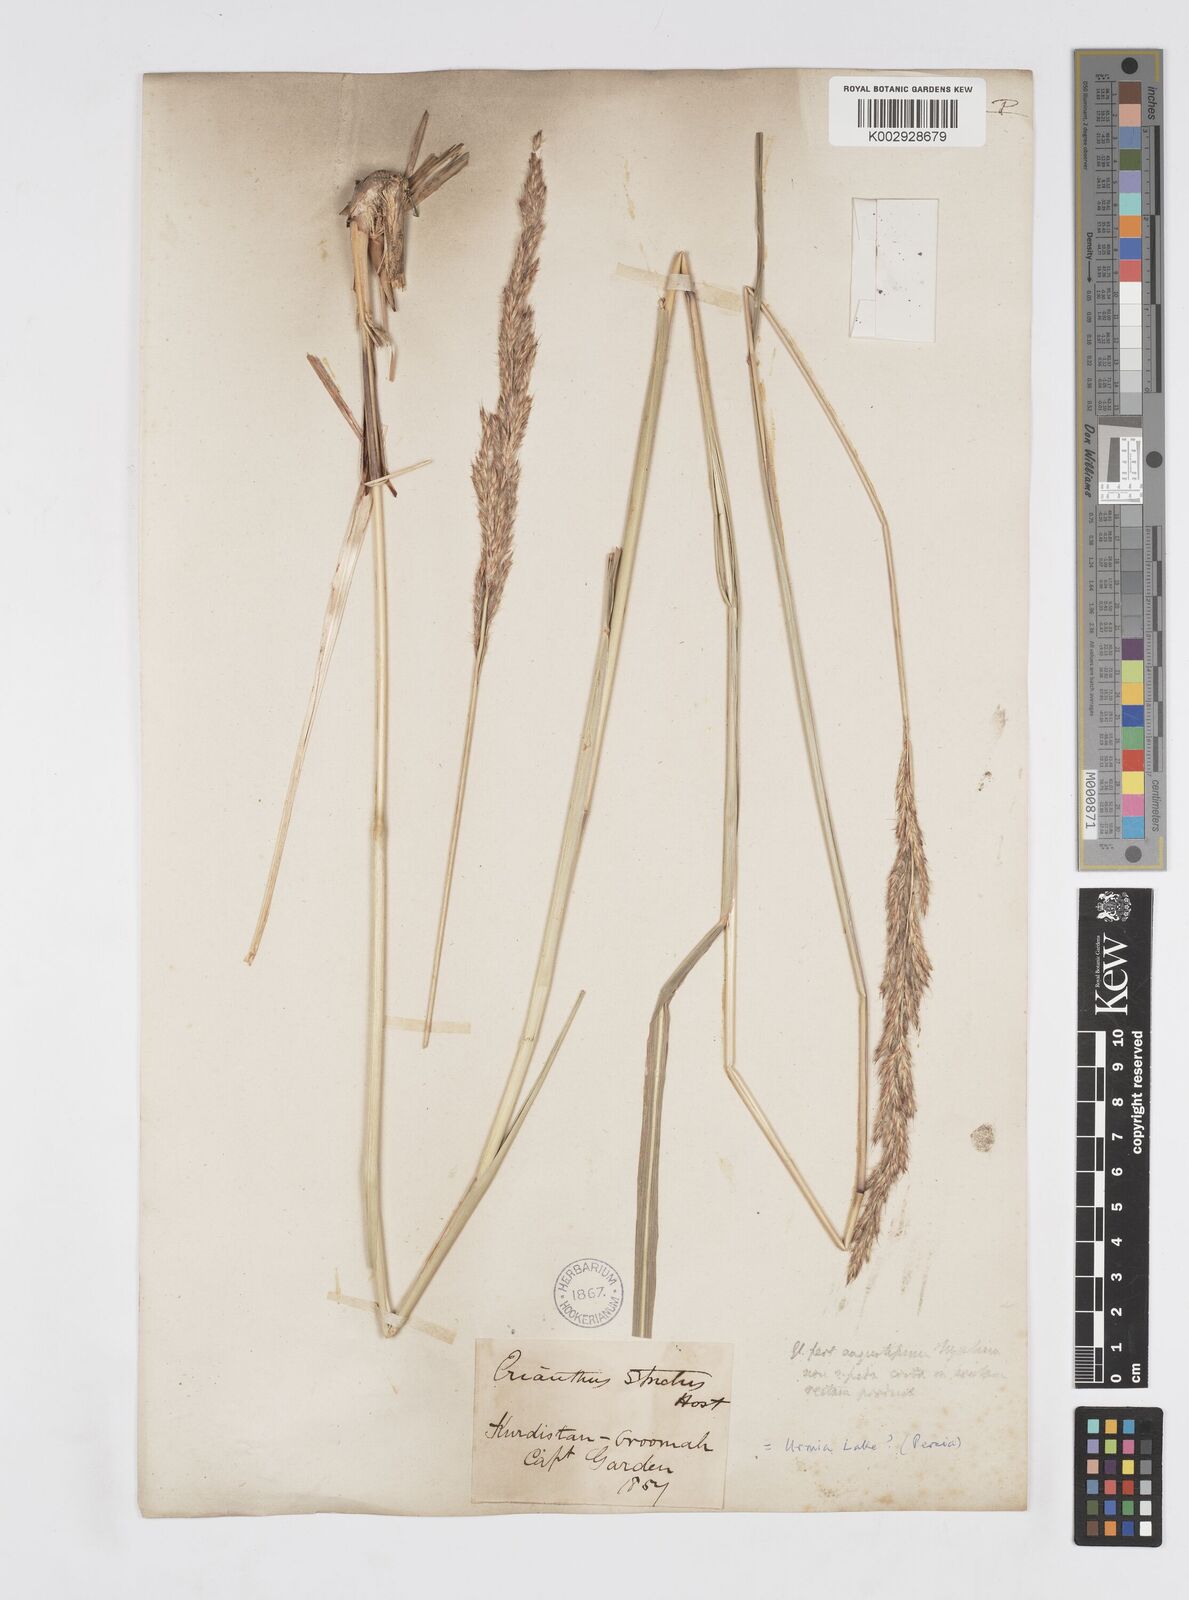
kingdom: Plantae
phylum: Tracheophyta
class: Liliopsida
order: Poales
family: Poaceae
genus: Tripidium
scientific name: Tripidium strictum
